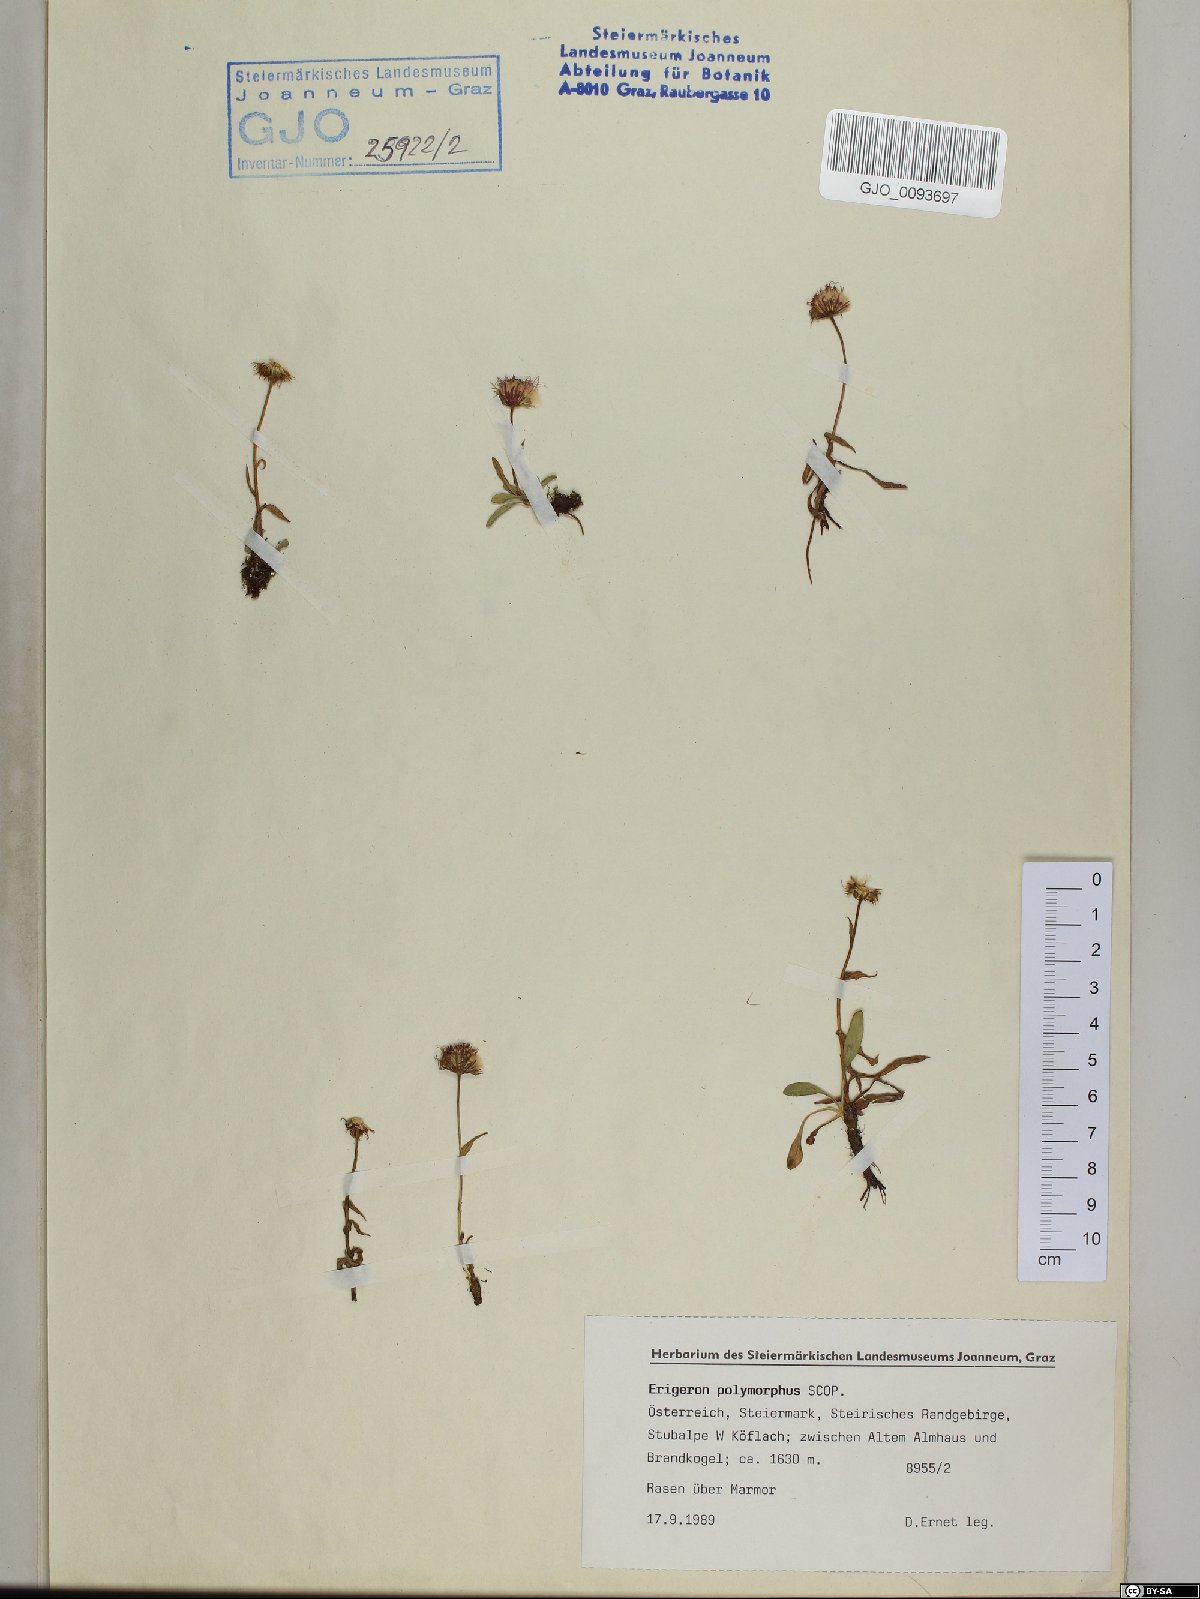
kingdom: Plantae
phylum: Tracheophyta
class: Magnoliopsida
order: Asterales
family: Asteraceae
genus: Erigeron
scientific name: Erigeron alpinus
